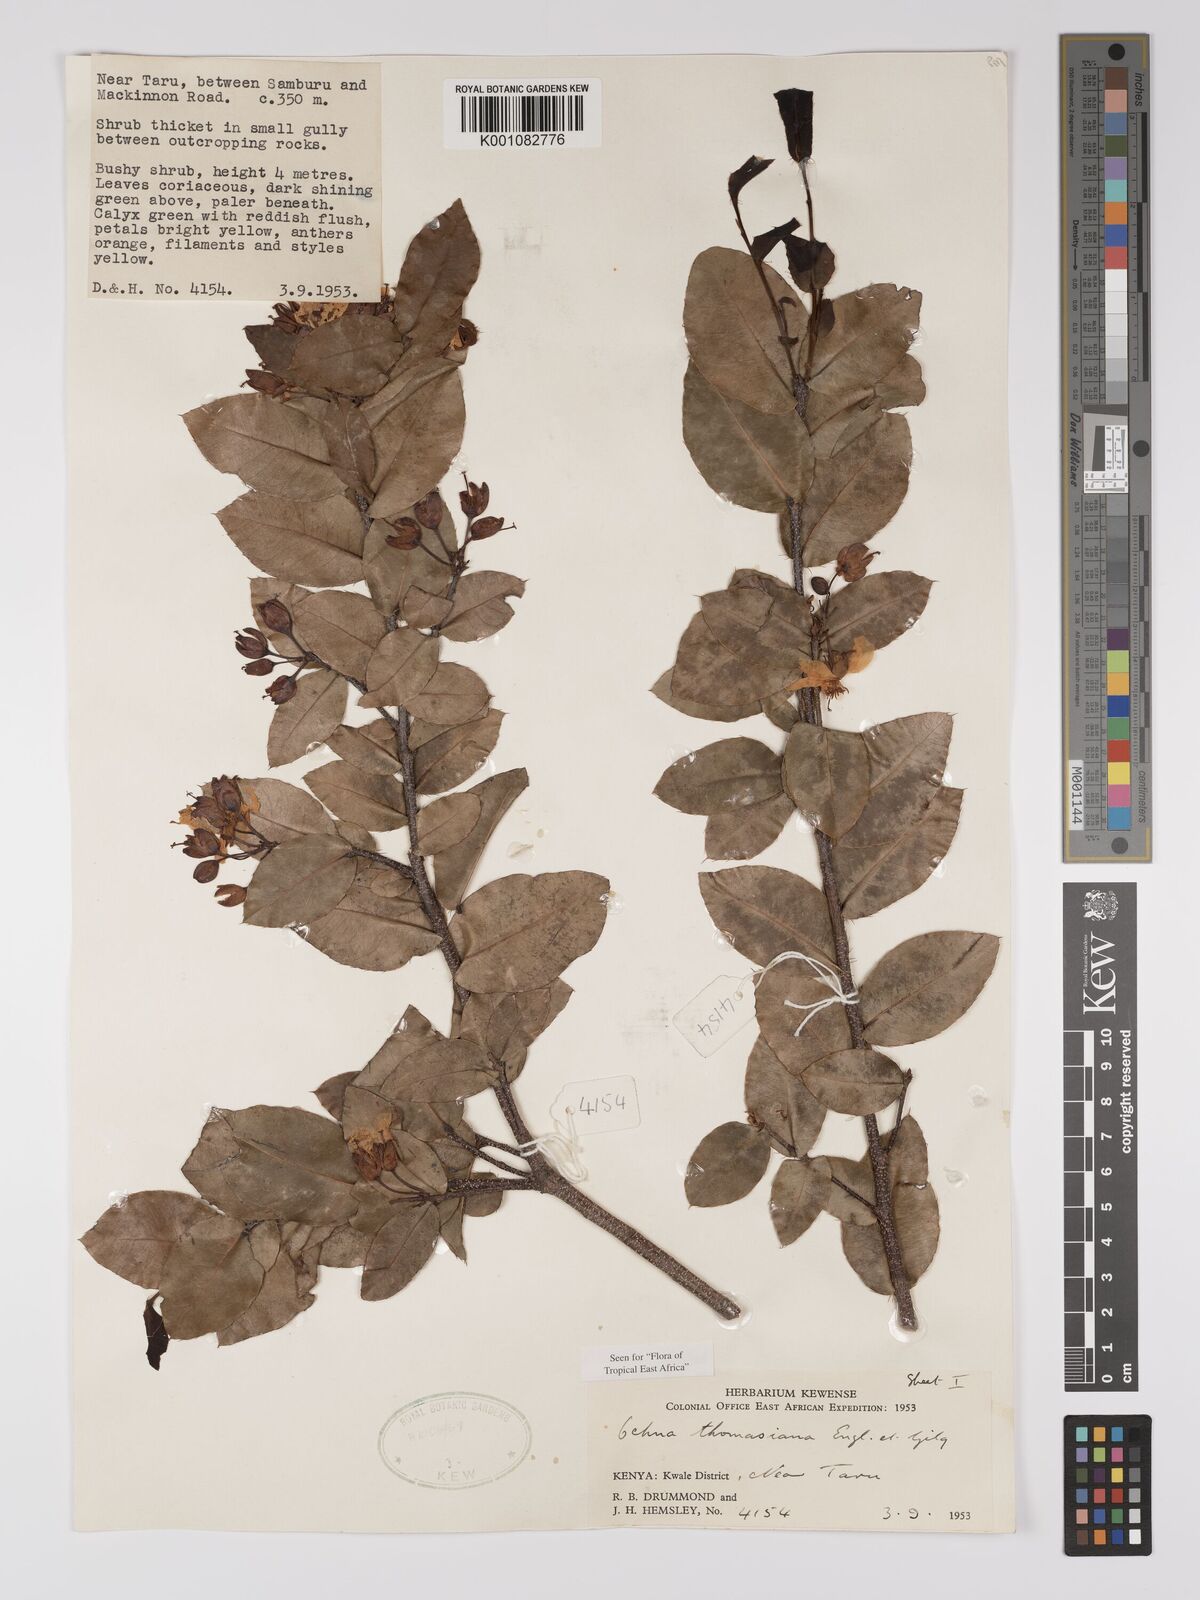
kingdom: Plantae
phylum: Tracheophyta
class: Magnoliopsida
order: Malpighiales
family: Ochnaceae
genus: Ochna
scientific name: Ochna thomasiana
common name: Thomas' bird's-eye bush
